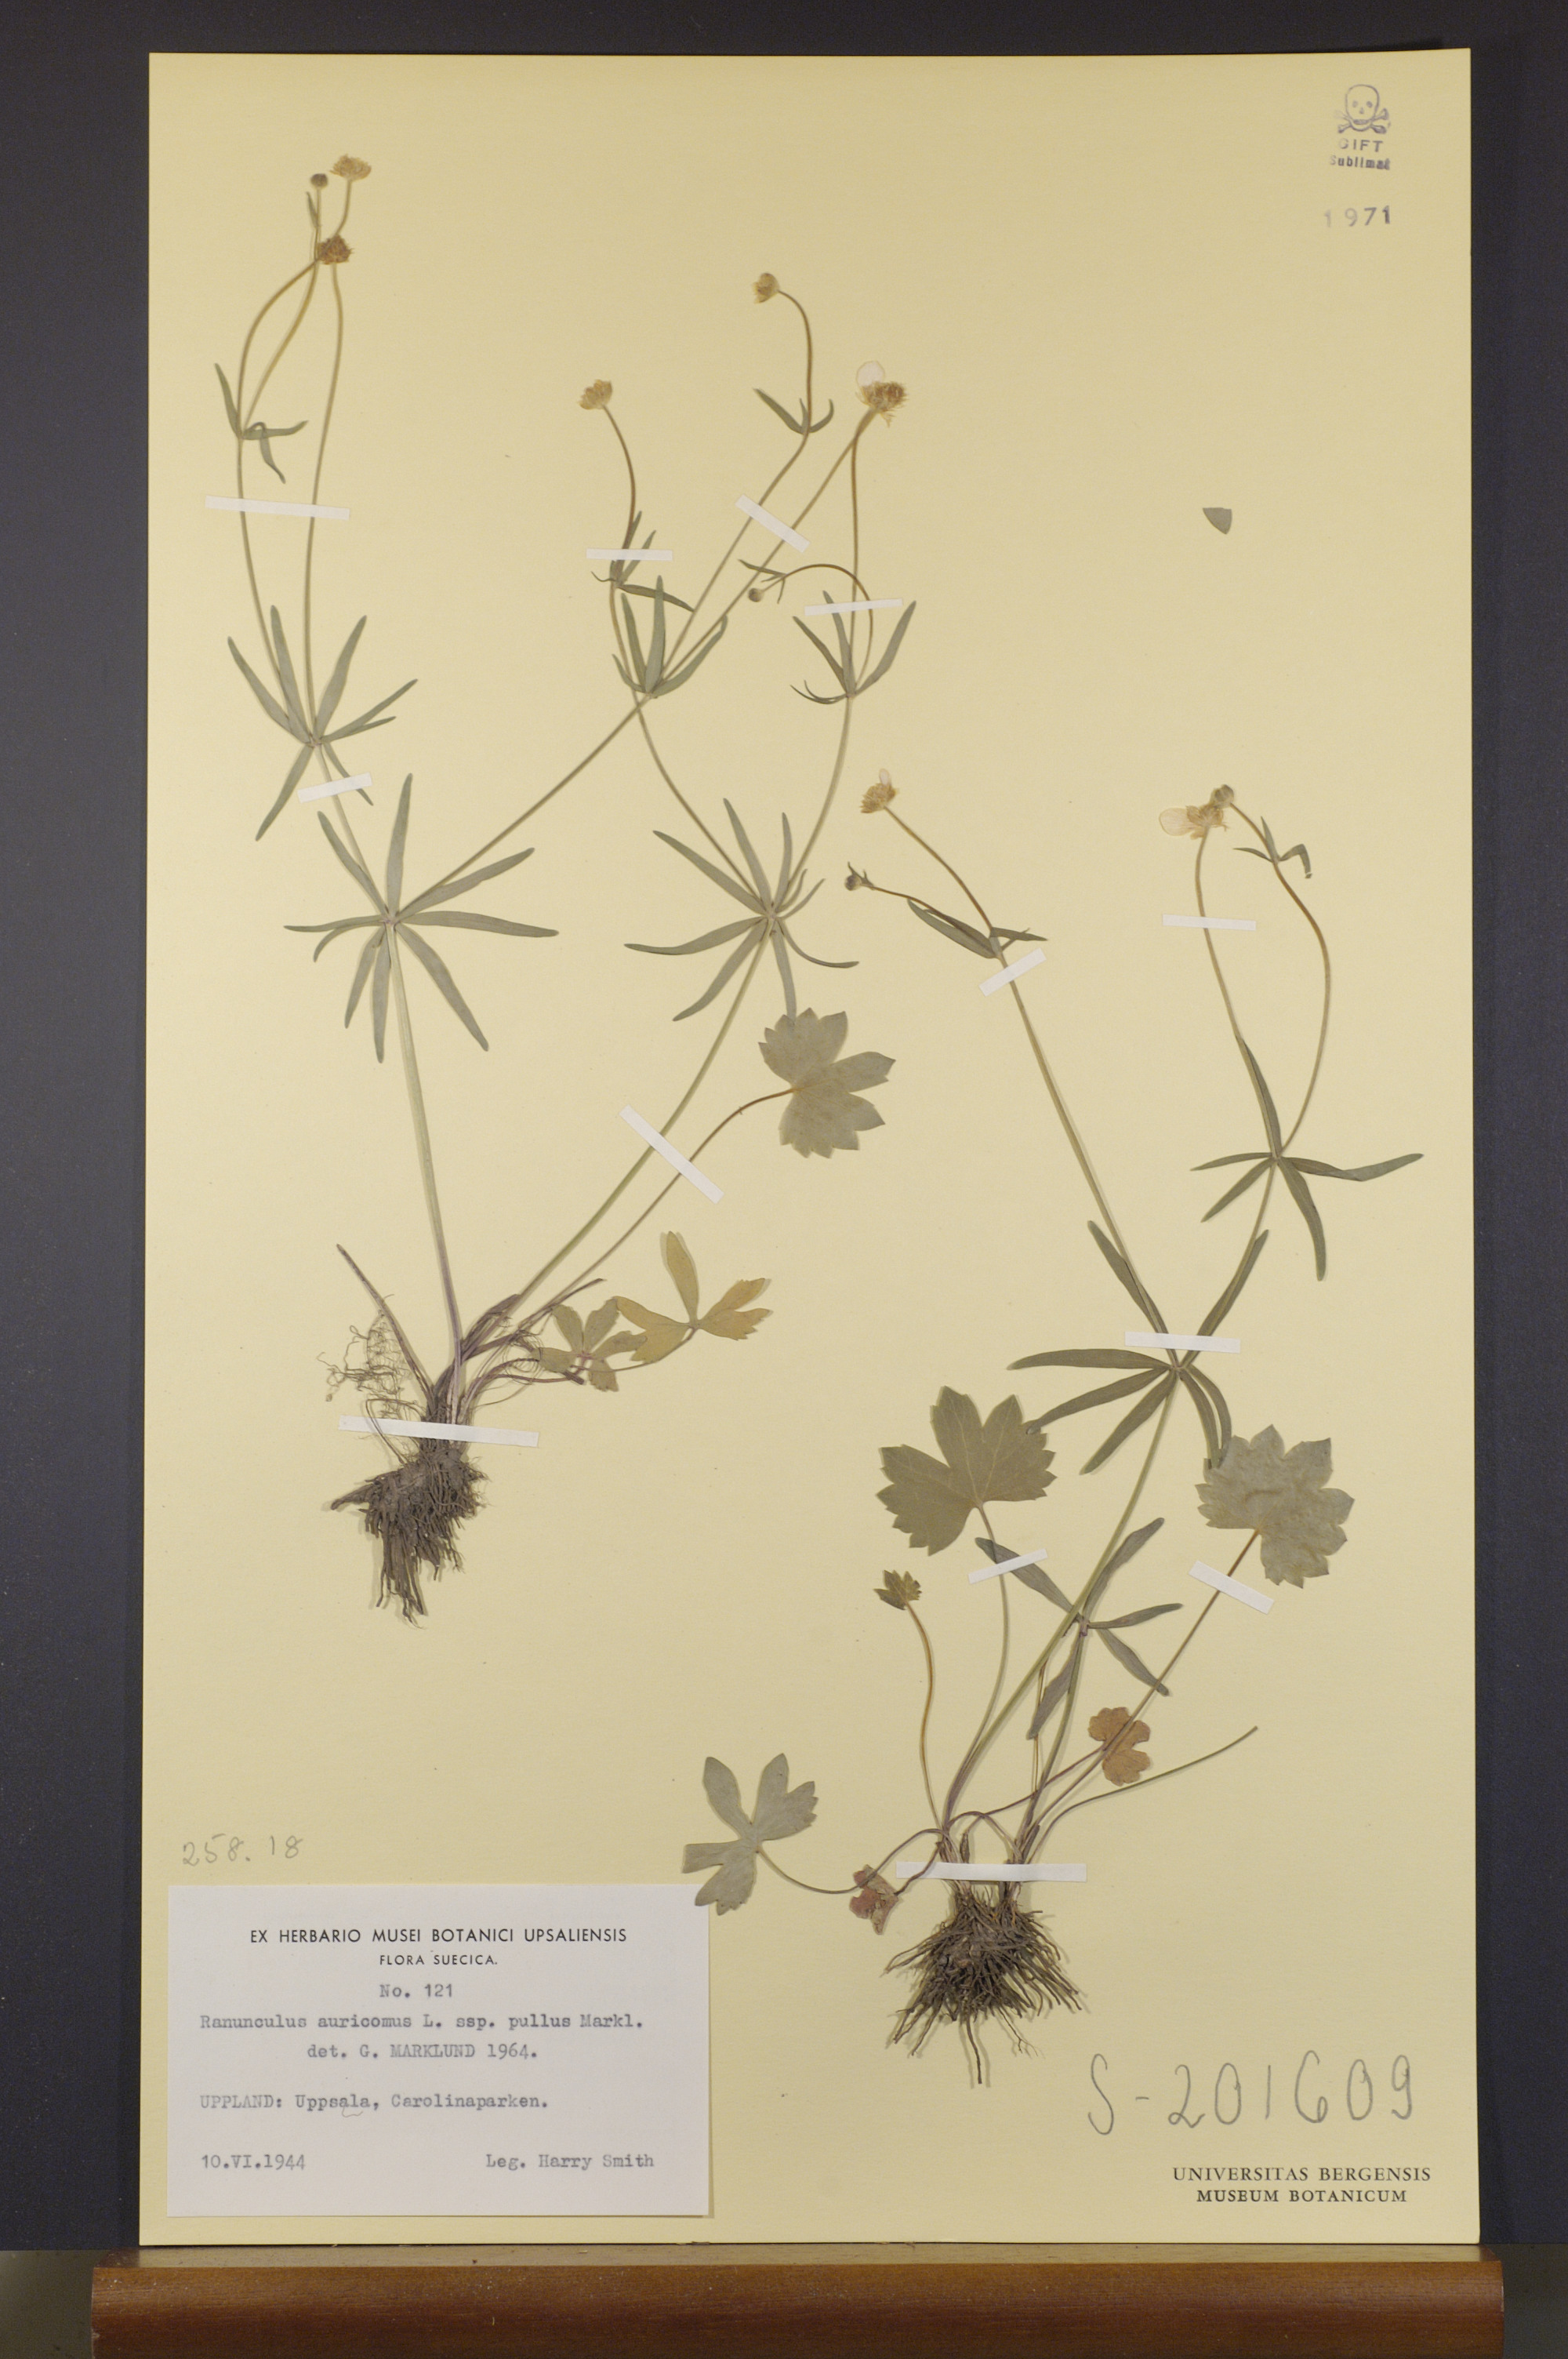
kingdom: Plantae
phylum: Tracheophyta
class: Magnoliopsida
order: Ranunculales
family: Ranunculaceae
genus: Ranunculus
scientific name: Ranunculus pullus
